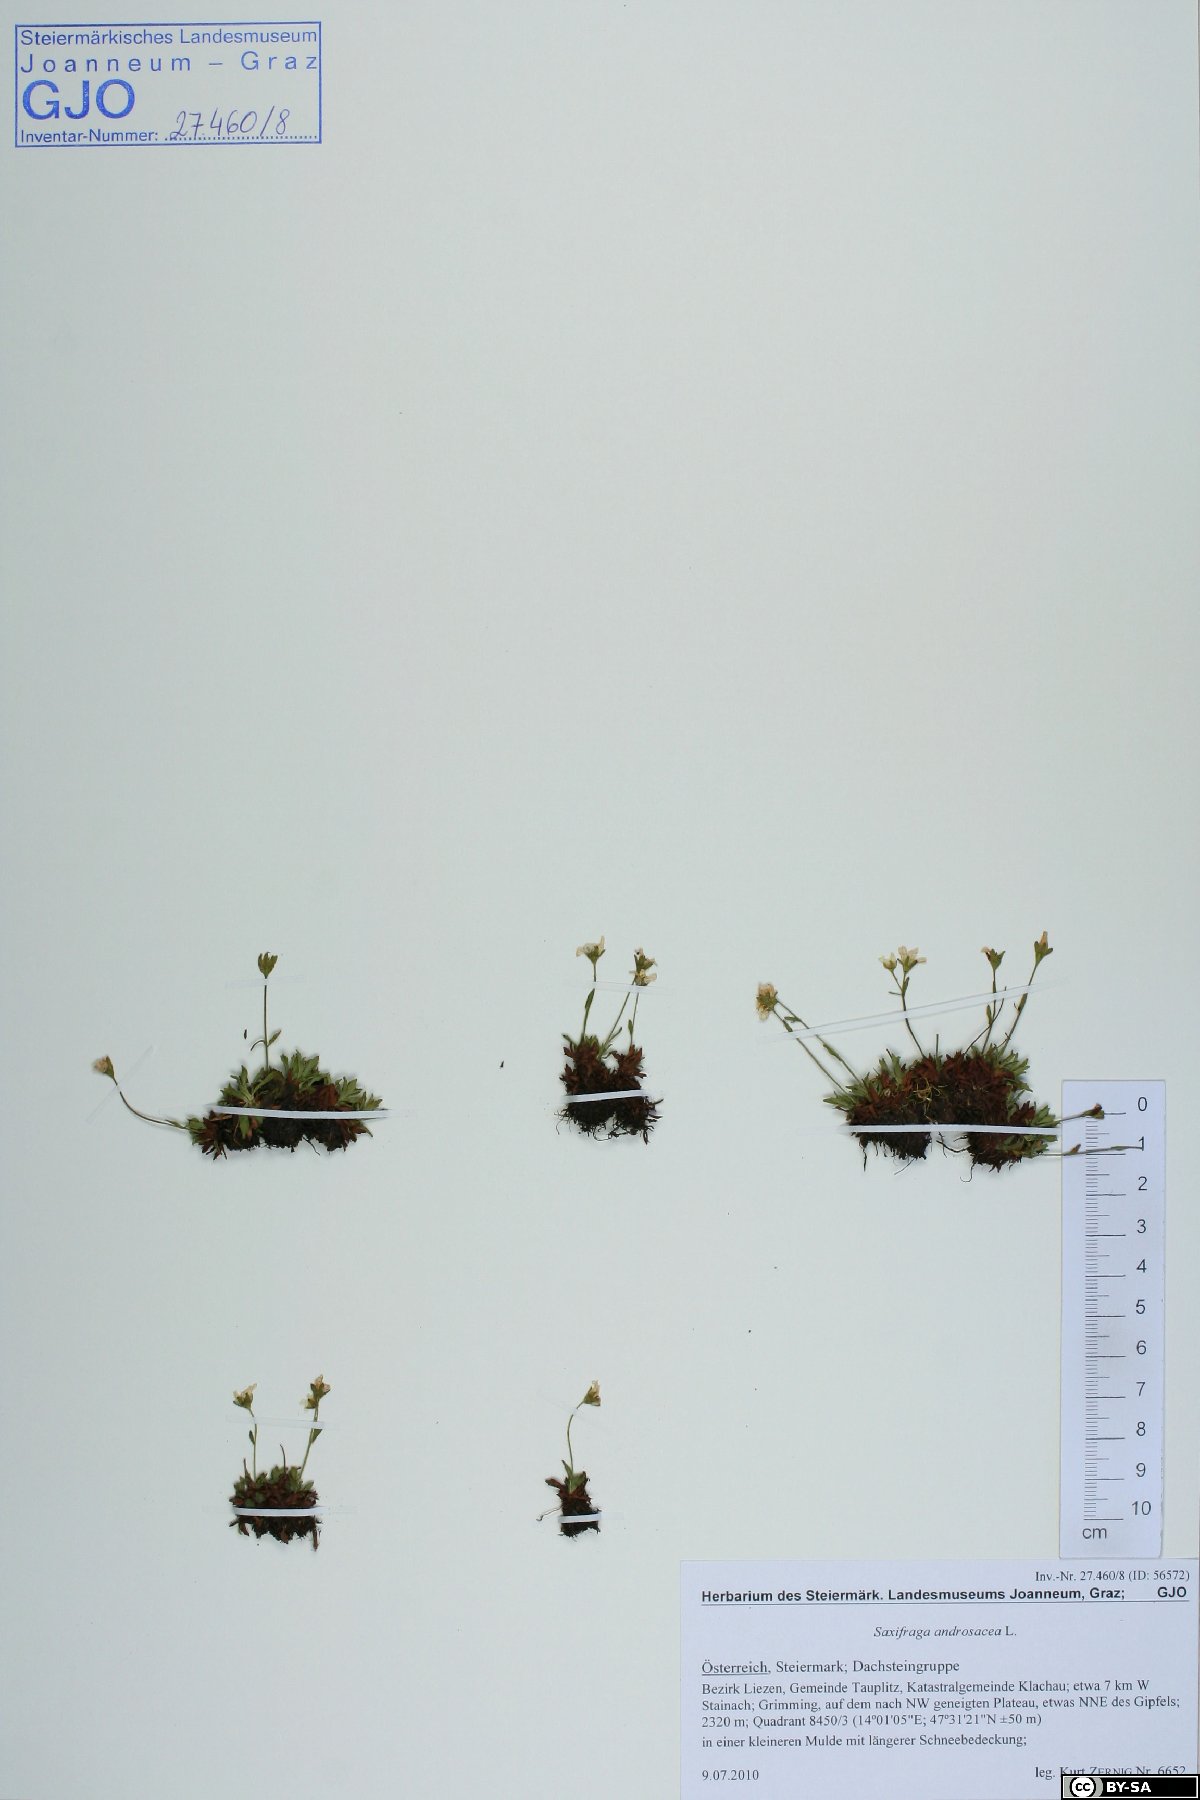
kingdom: Plantae
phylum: Tracheophyta
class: Magnoliopsida
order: Saxifragales
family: Saxifragaceae
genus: Saxifraga
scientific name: Saxifraga androsacea
